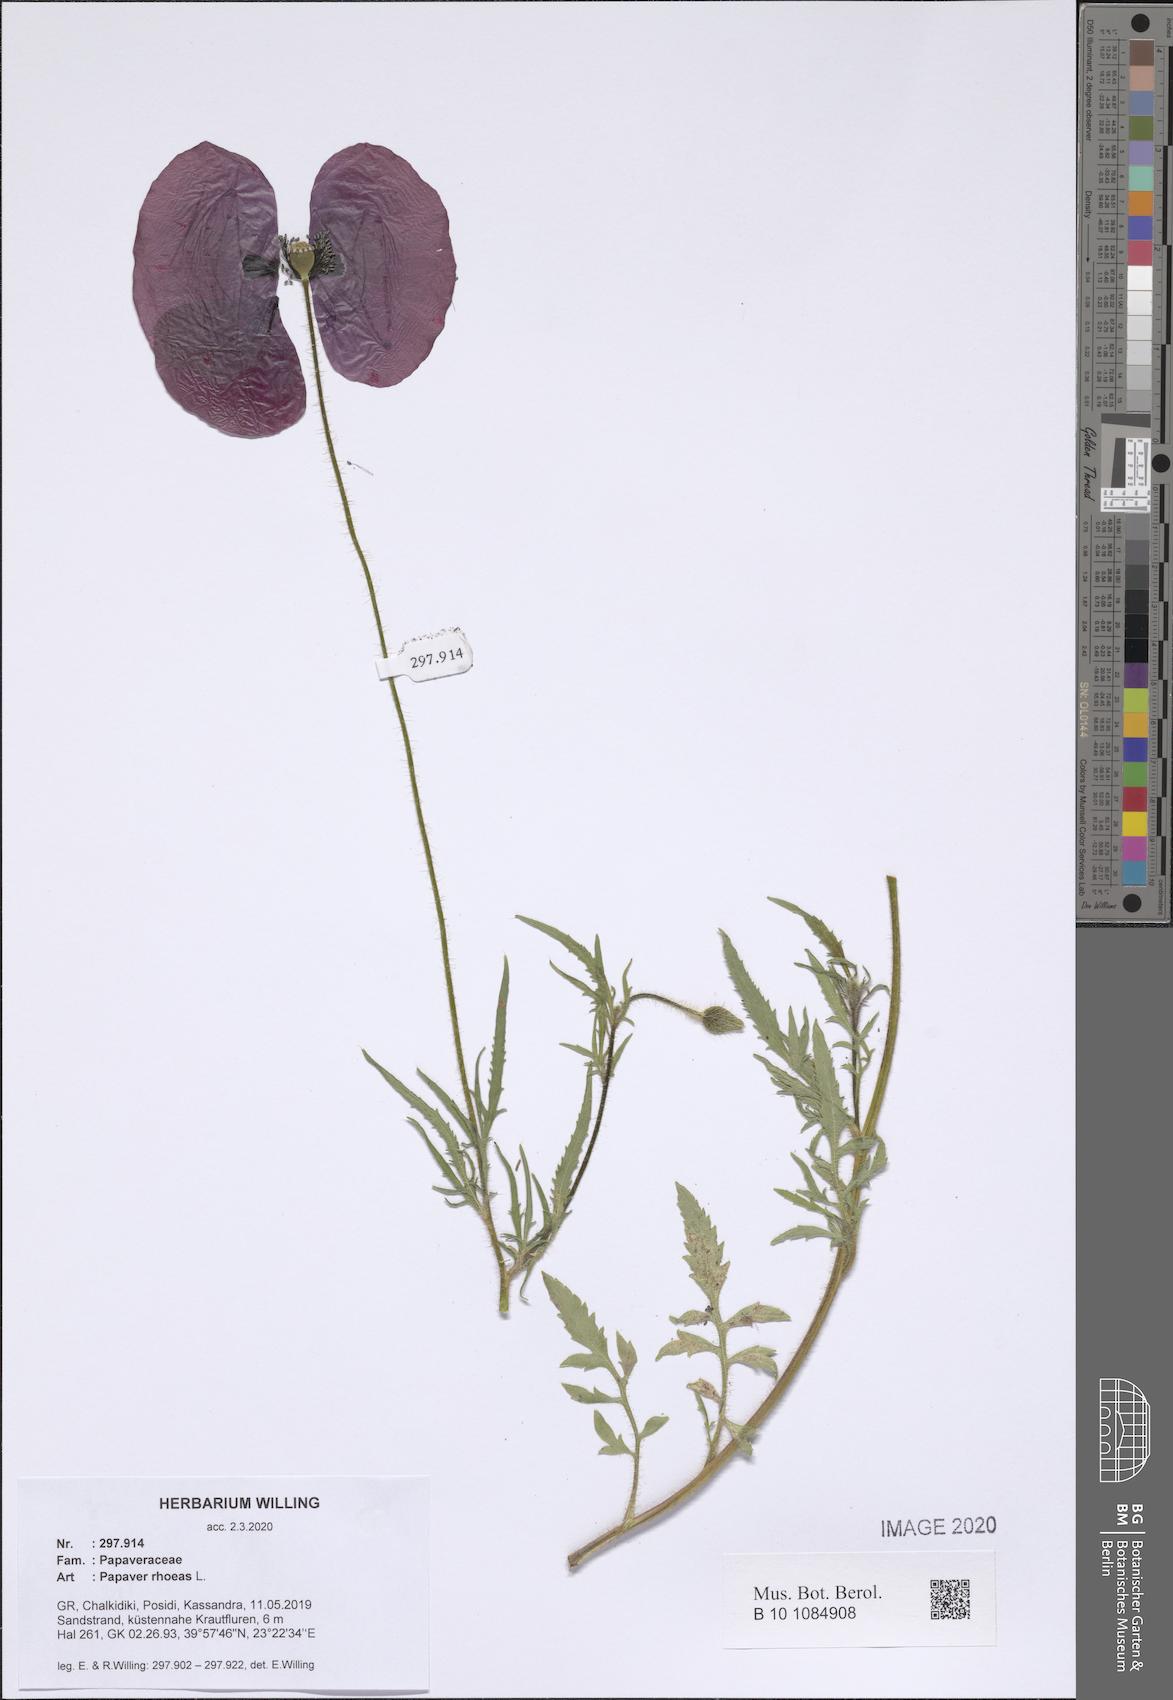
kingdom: Plantae
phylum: Tracheophyta
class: Magnoliopsida
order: Ranunculales
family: Papaveraceae
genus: Papaver
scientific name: Papaver rhoeas
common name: Corn poppy
